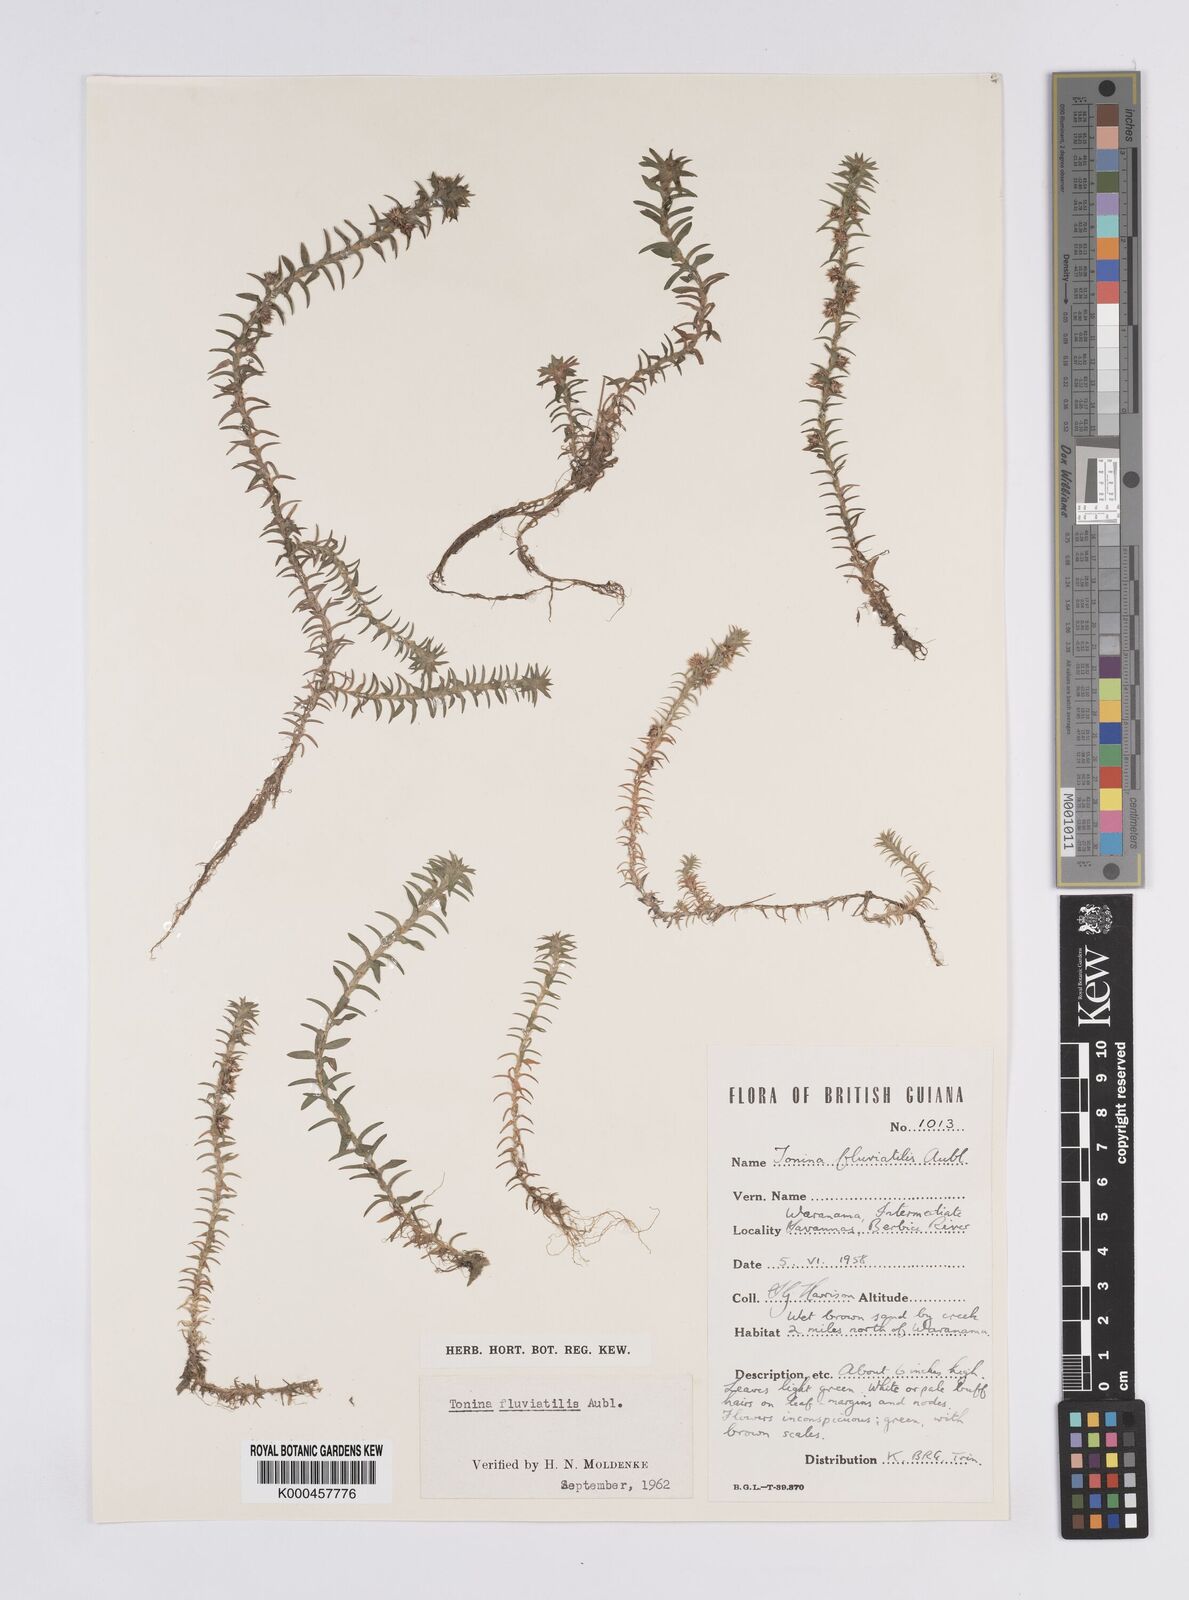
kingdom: Plantae
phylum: Tracheophyta
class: Liliopsida
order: Poales
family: Eriocaulaceae
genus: Paepalanthus
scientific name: Paepalanthus fluviatilis
